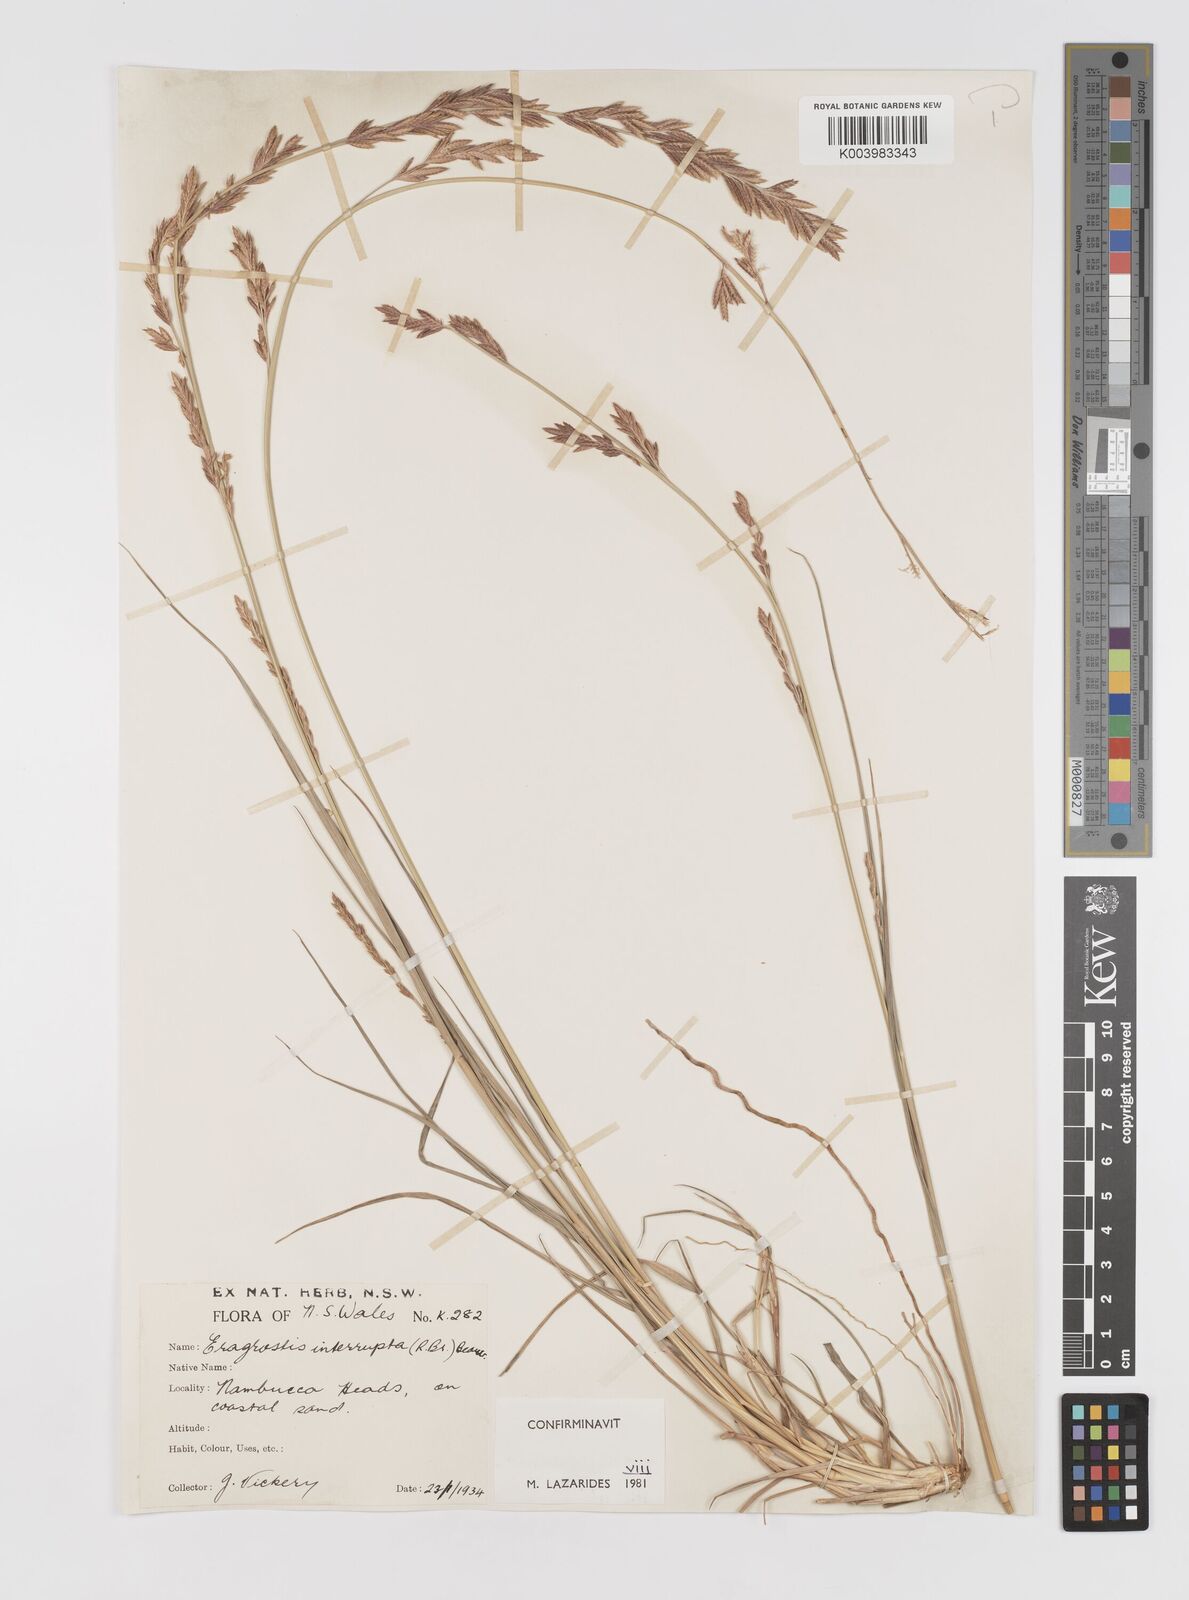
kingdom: Plantae
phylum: Tracheophyta
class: Liliopsida
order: Poales
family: Poaceae
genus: Eragrostis
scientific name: Eragrostis interrupta
